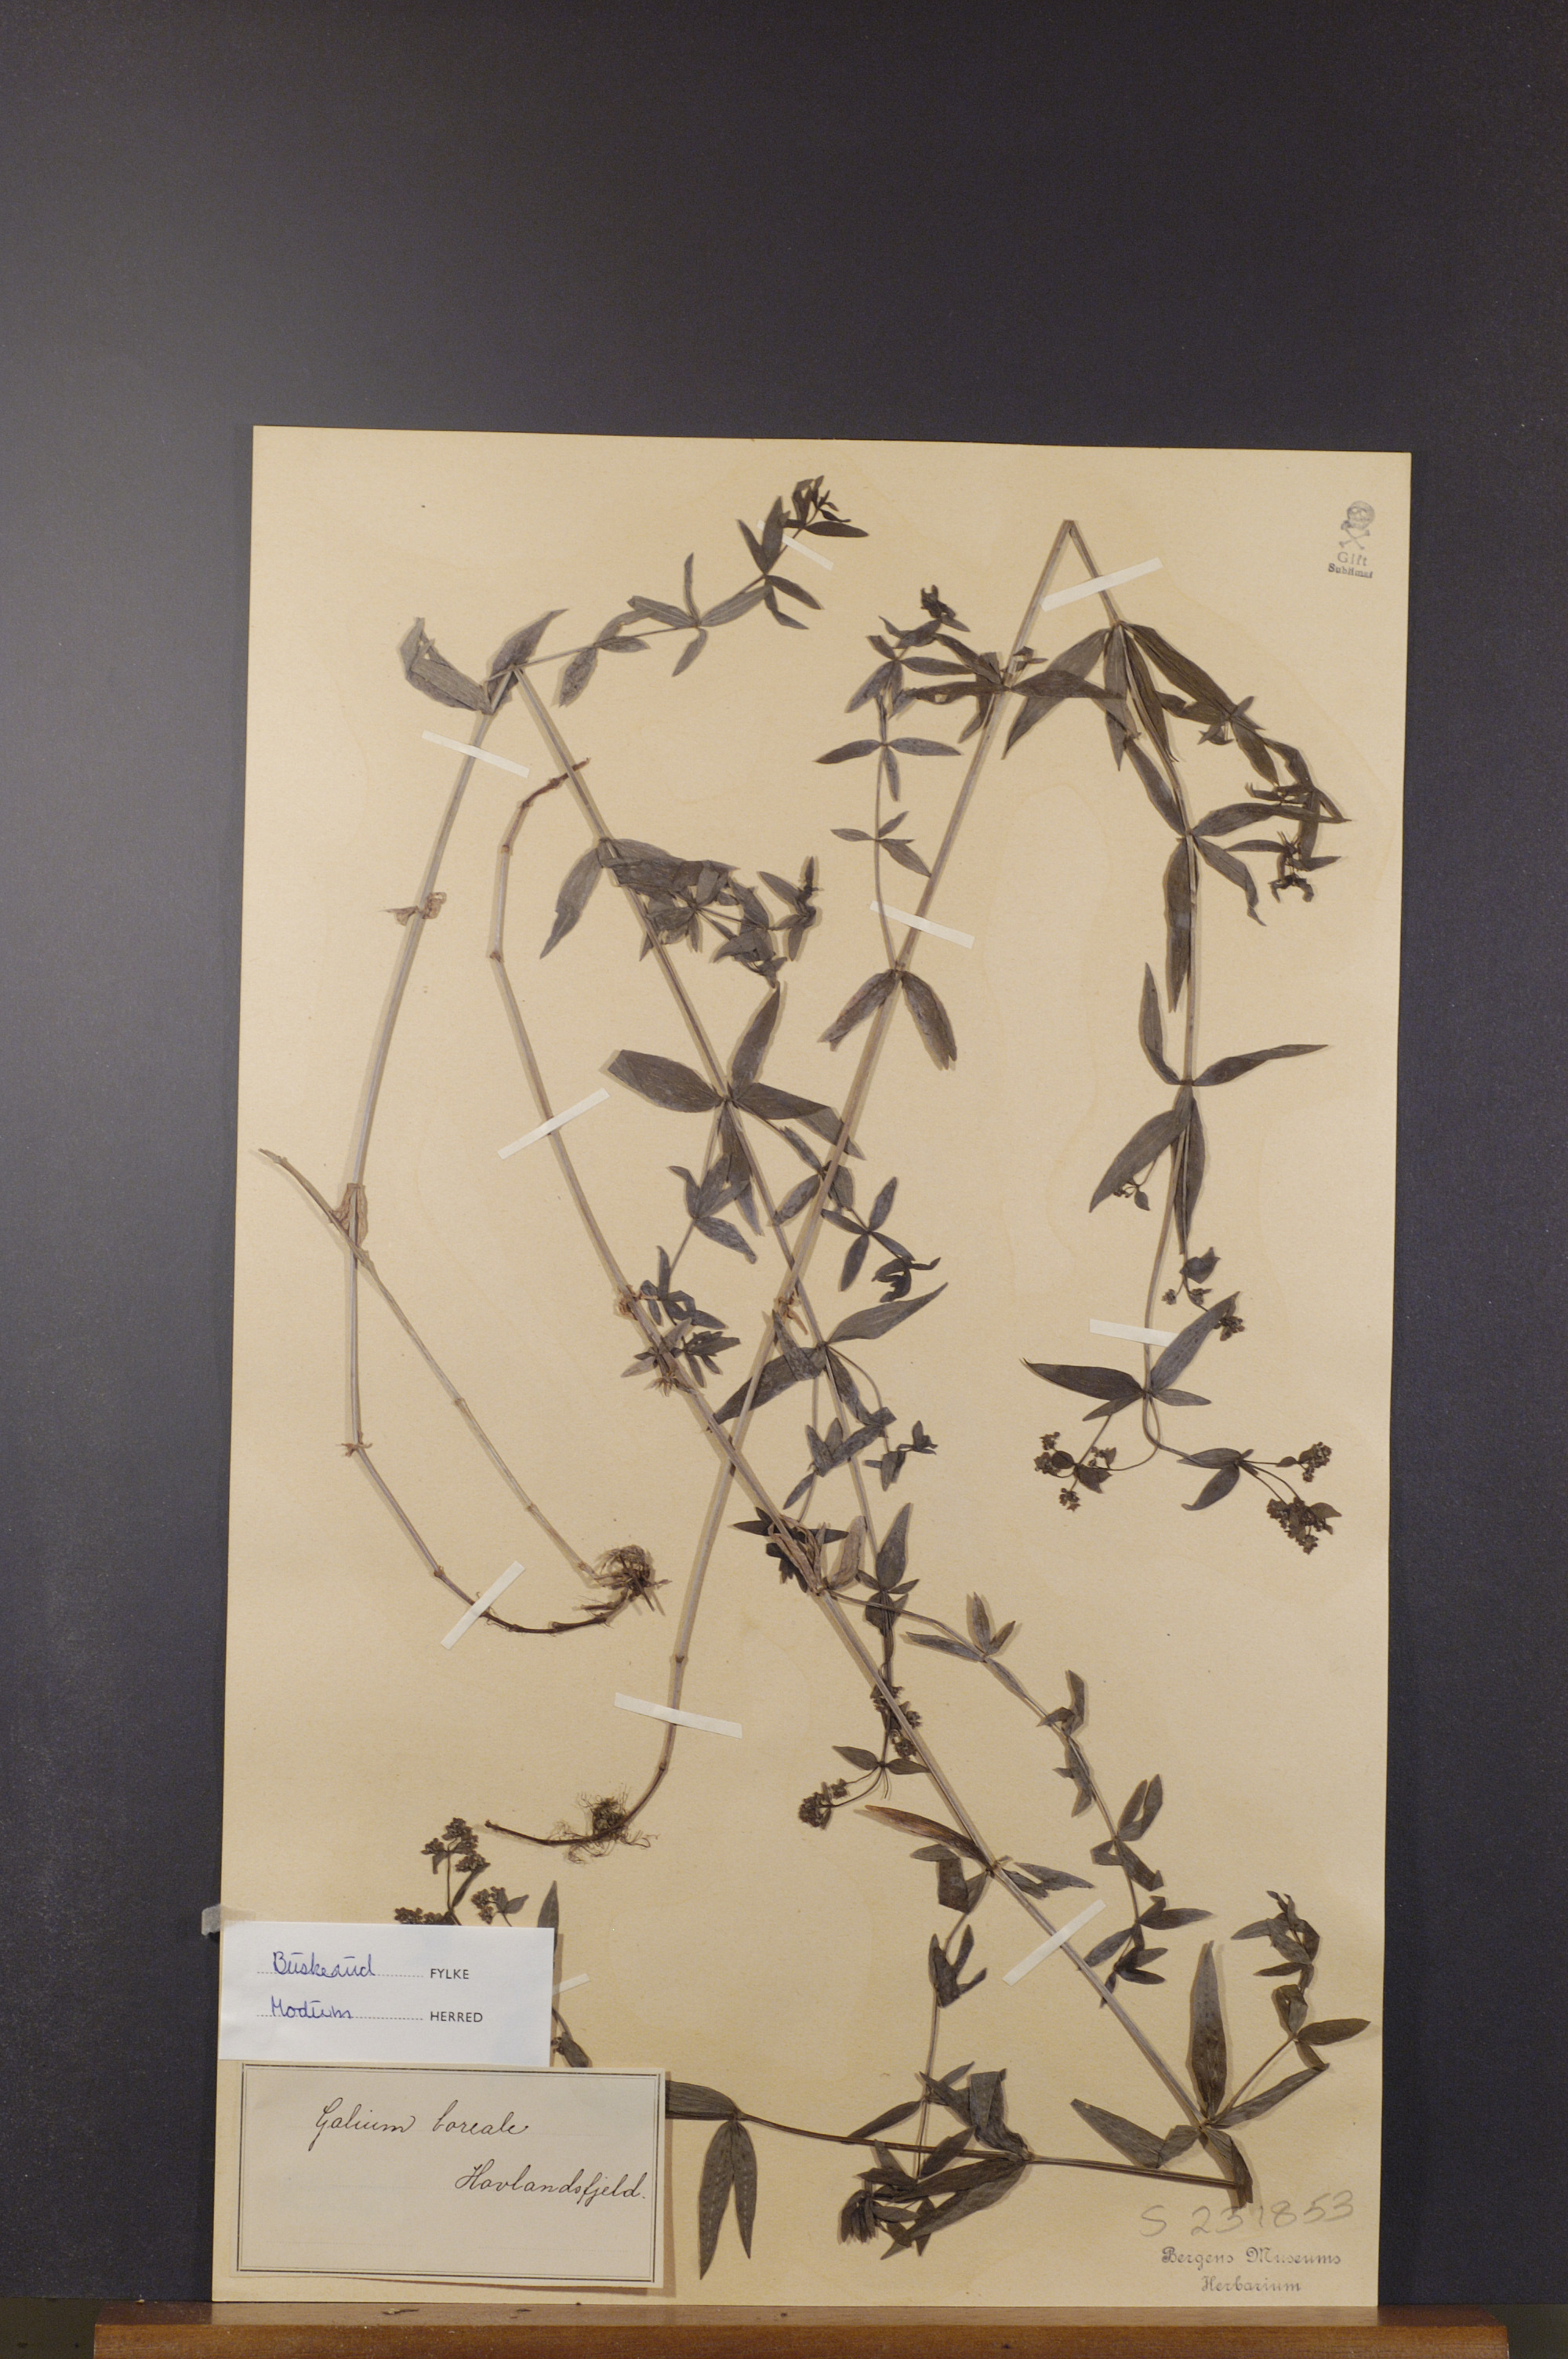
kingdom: Plantae
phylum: Tracheophyta
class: Magnoliopsida
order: Gentianales
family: Rubiaceae
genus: Galium
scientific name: Galium boreale
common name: Northern bedstraw
